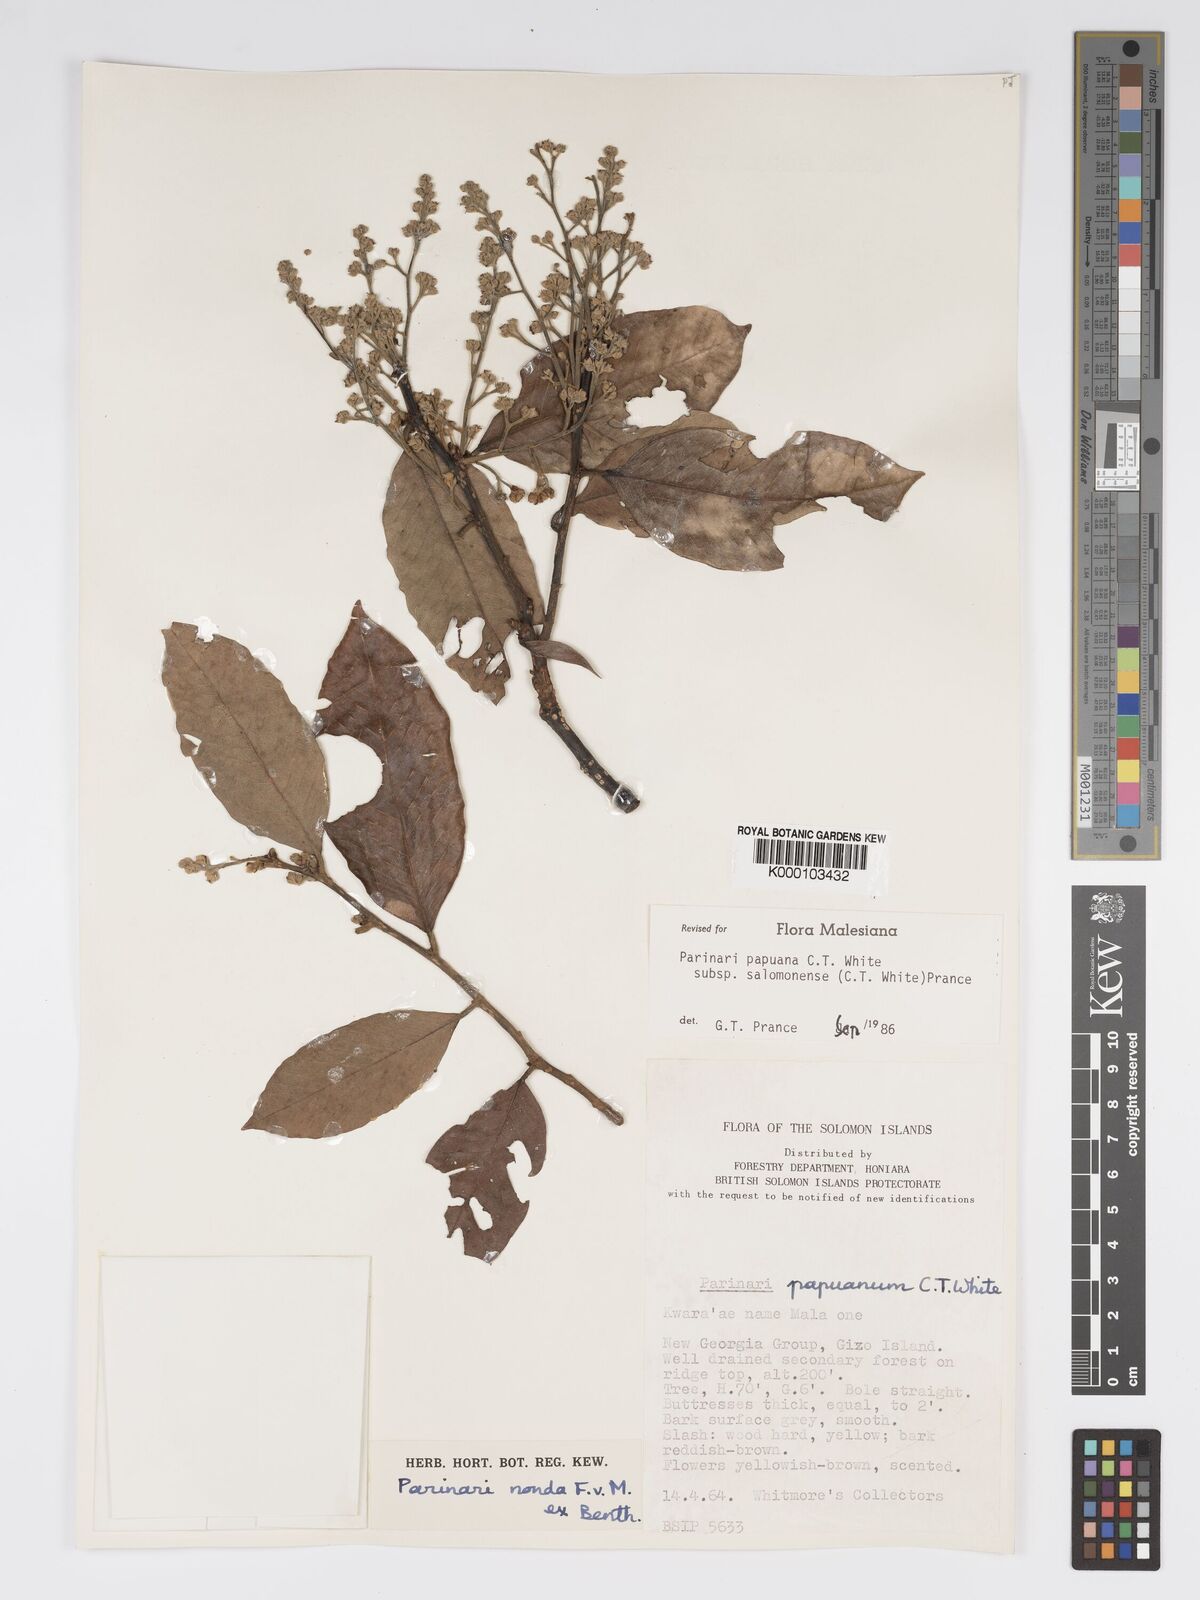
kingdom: Plantae
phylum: Tracheophyta
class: Magnoliopsida
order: Malpighiales
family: Chrysobalanaceae
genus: Parinari
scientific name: Parinari papuana
